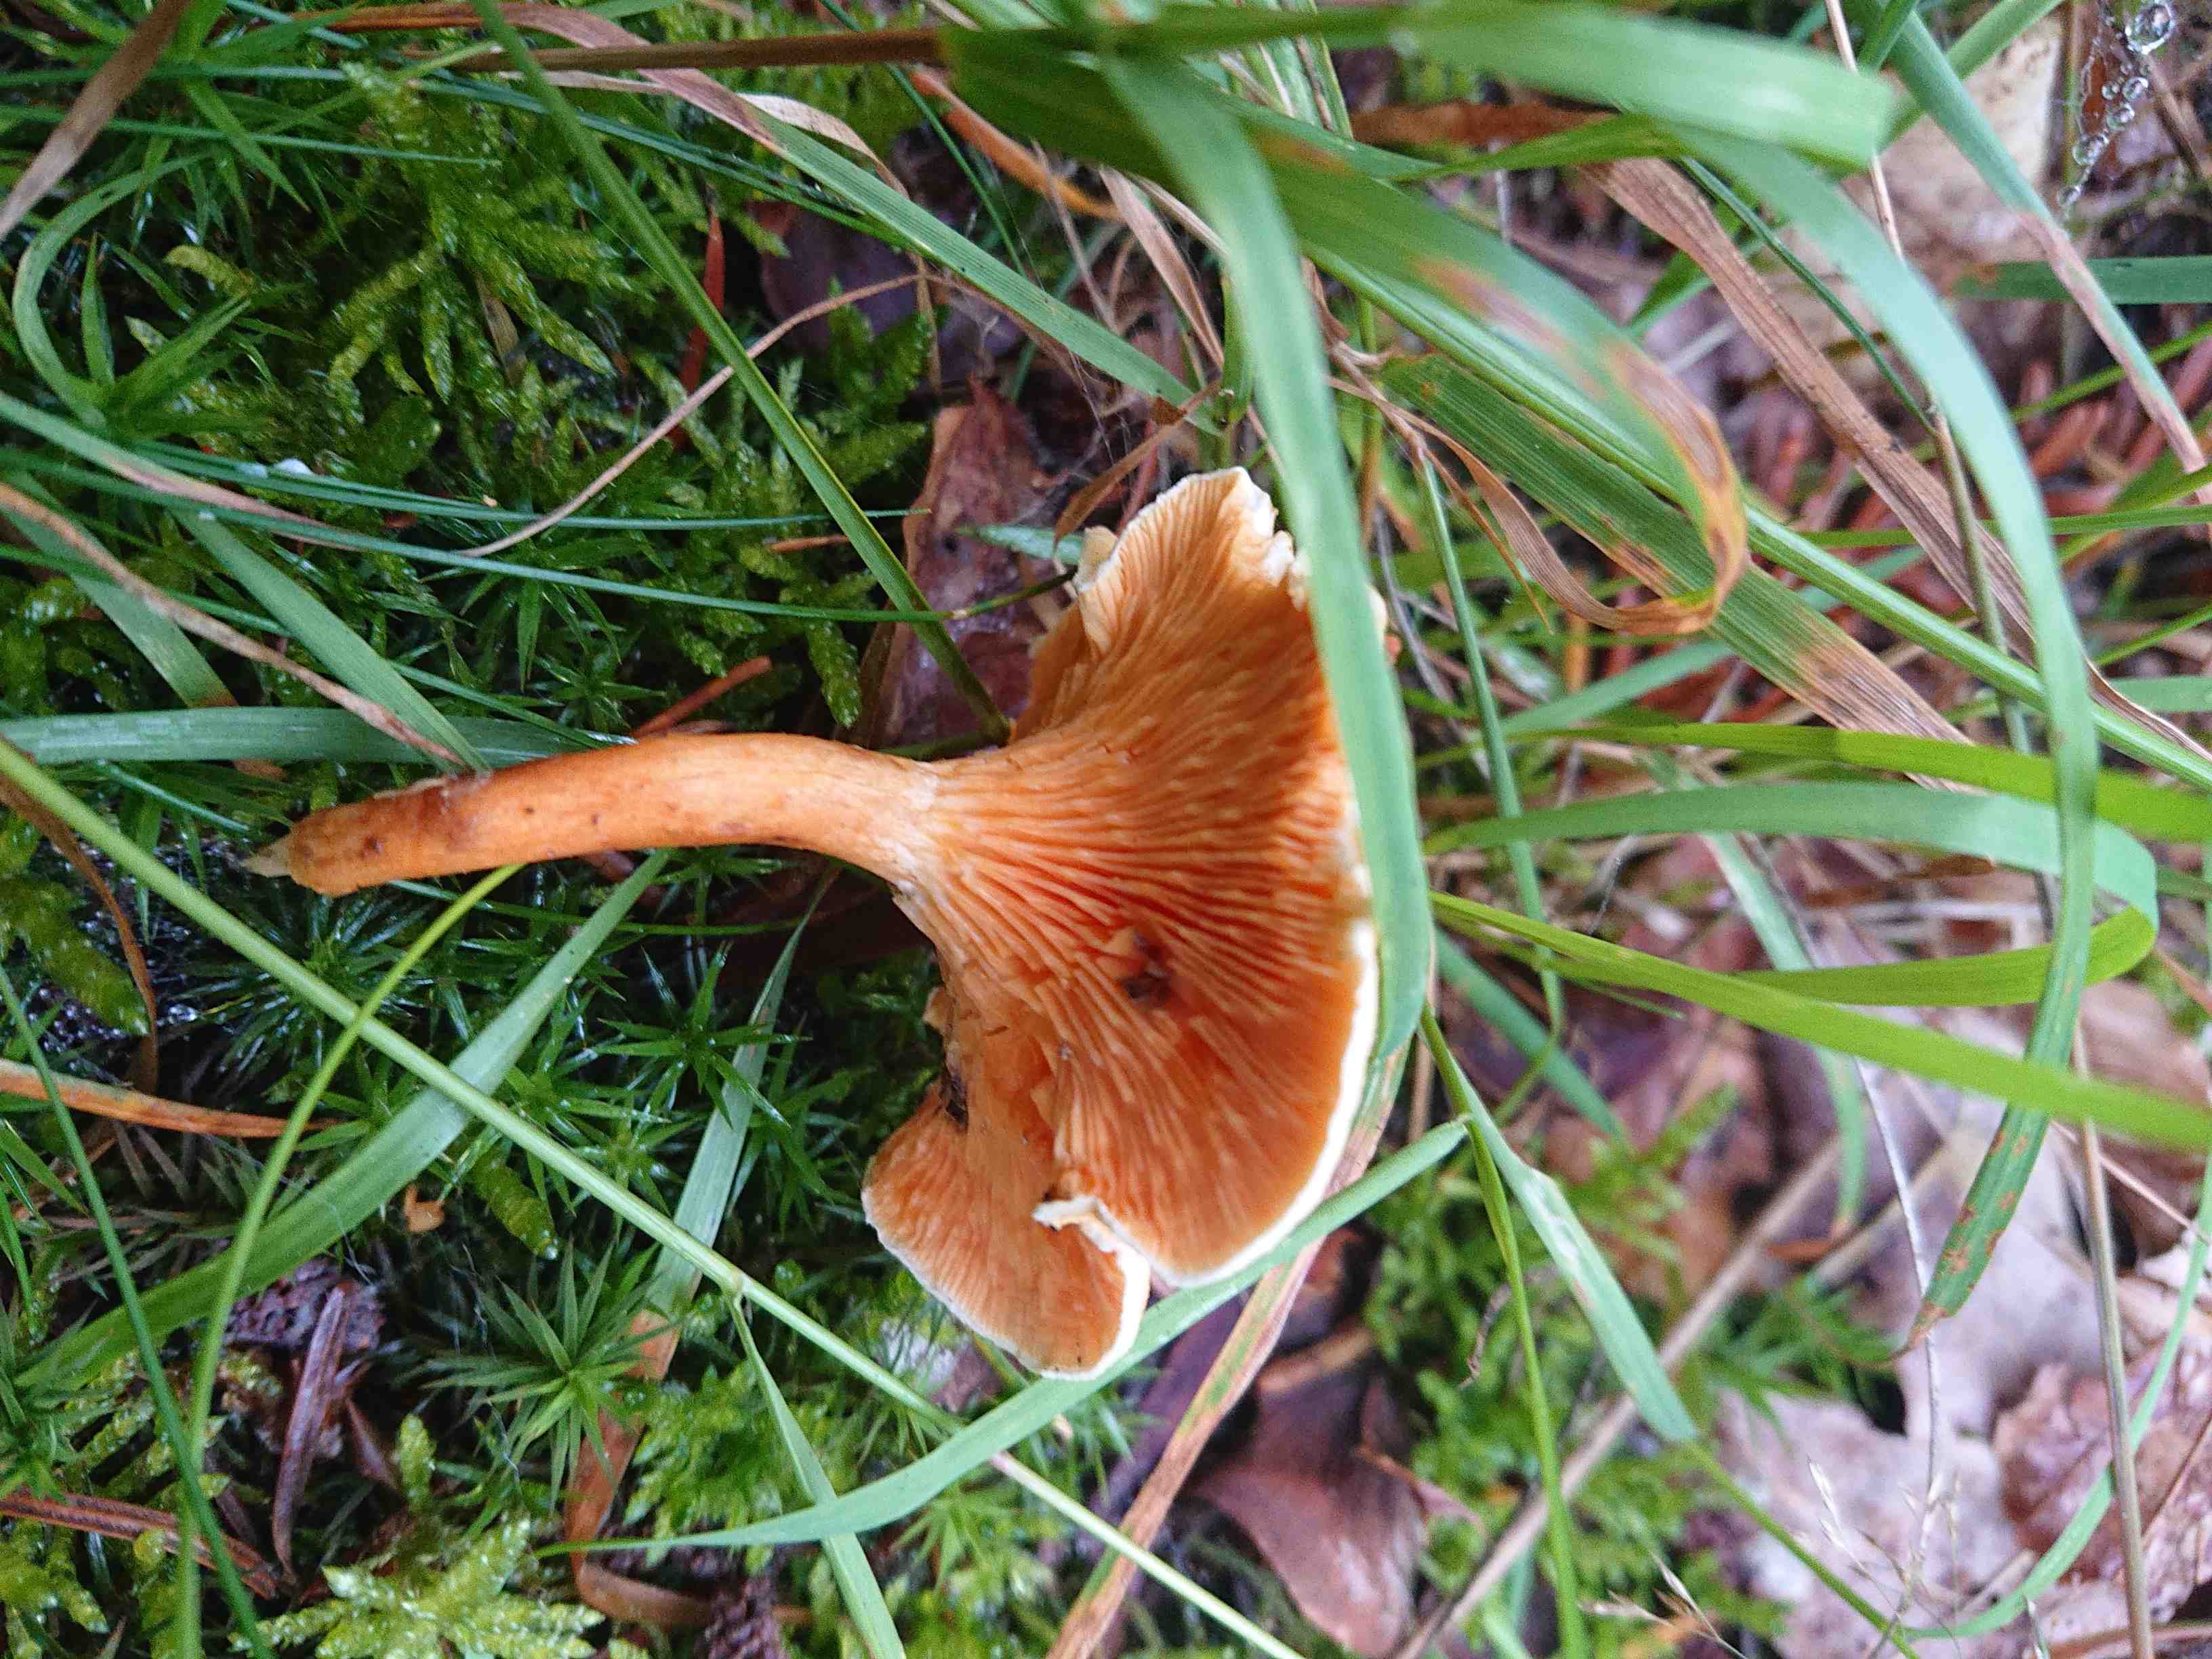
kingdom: Fungi
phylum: Basidiomycota
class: Agaricomycetes
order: Boletales
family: Hygrophoropsidaceae
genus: Hygrophoropsis
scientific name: Hygrophoropsis aurantiaca
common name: almindelig orangekantarel
